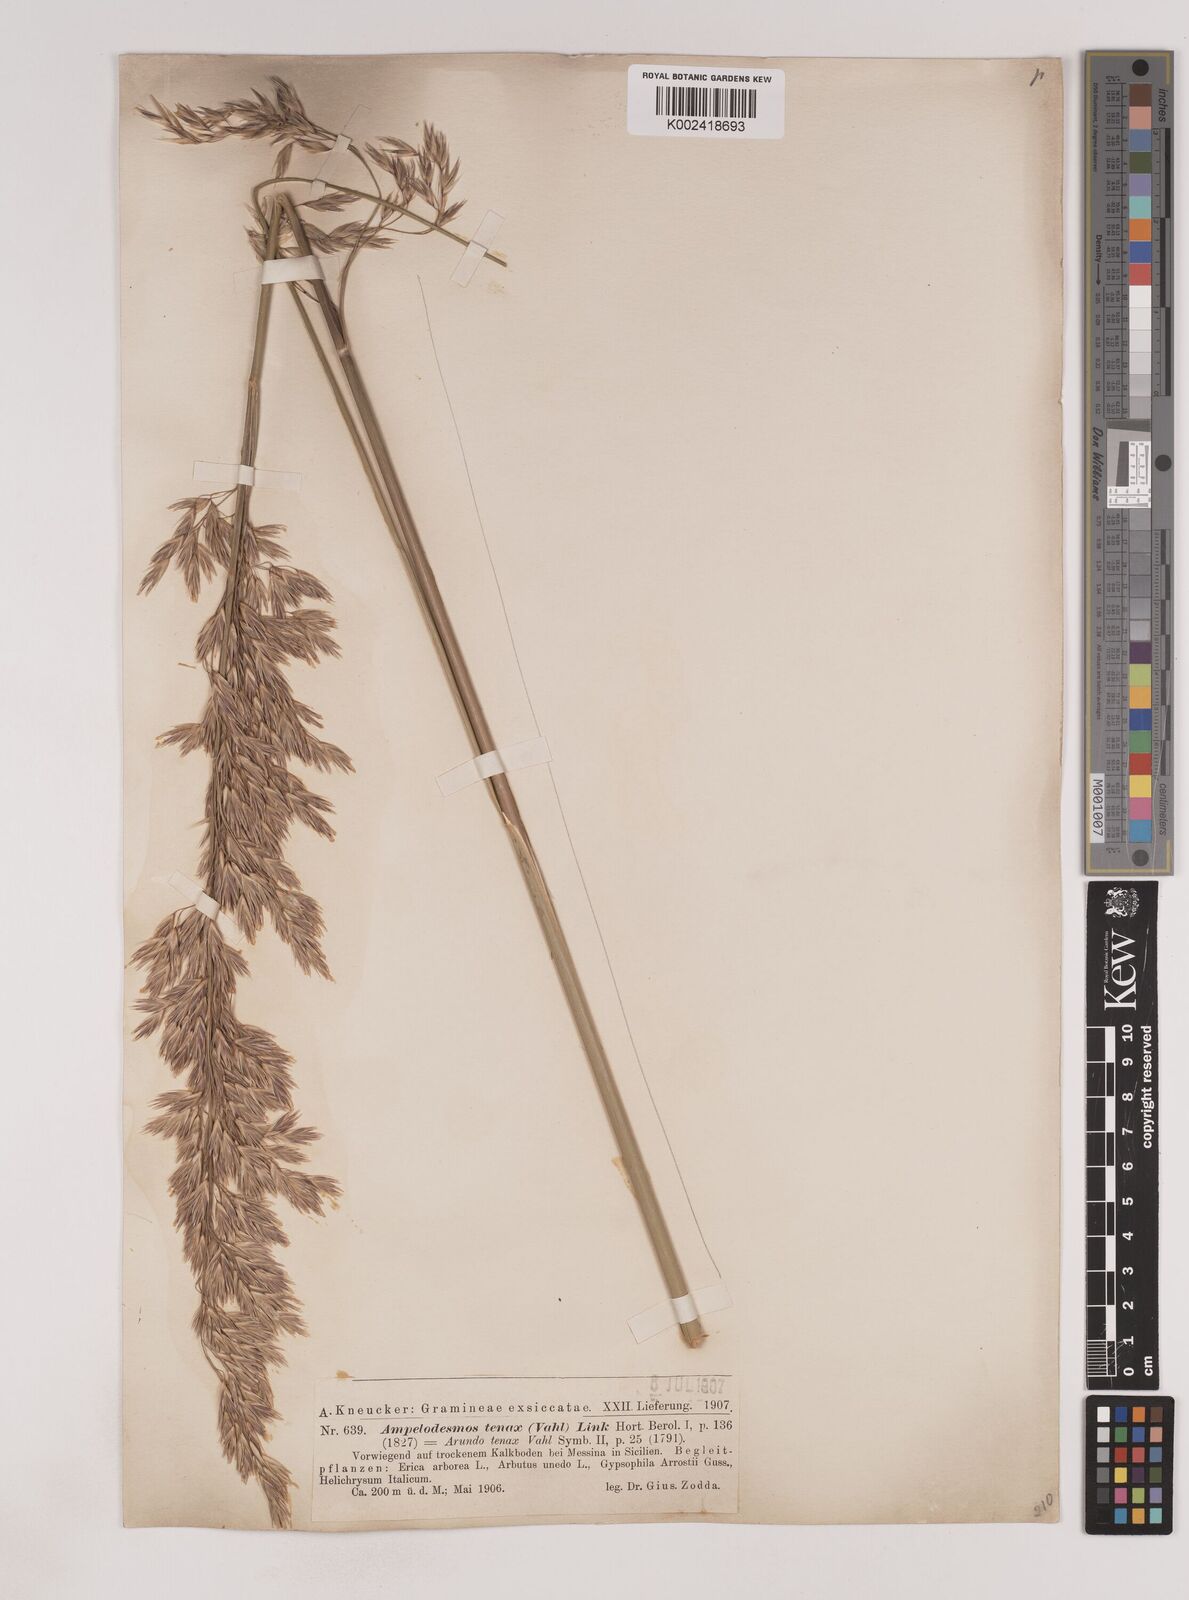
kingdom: Plantae
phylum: Tracheophyta
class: Liliopsida
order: Poales
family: Poaceae
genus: Ampelodesmos
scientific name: Ampelodesmos mauritanicus
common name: Mauritanian grass
